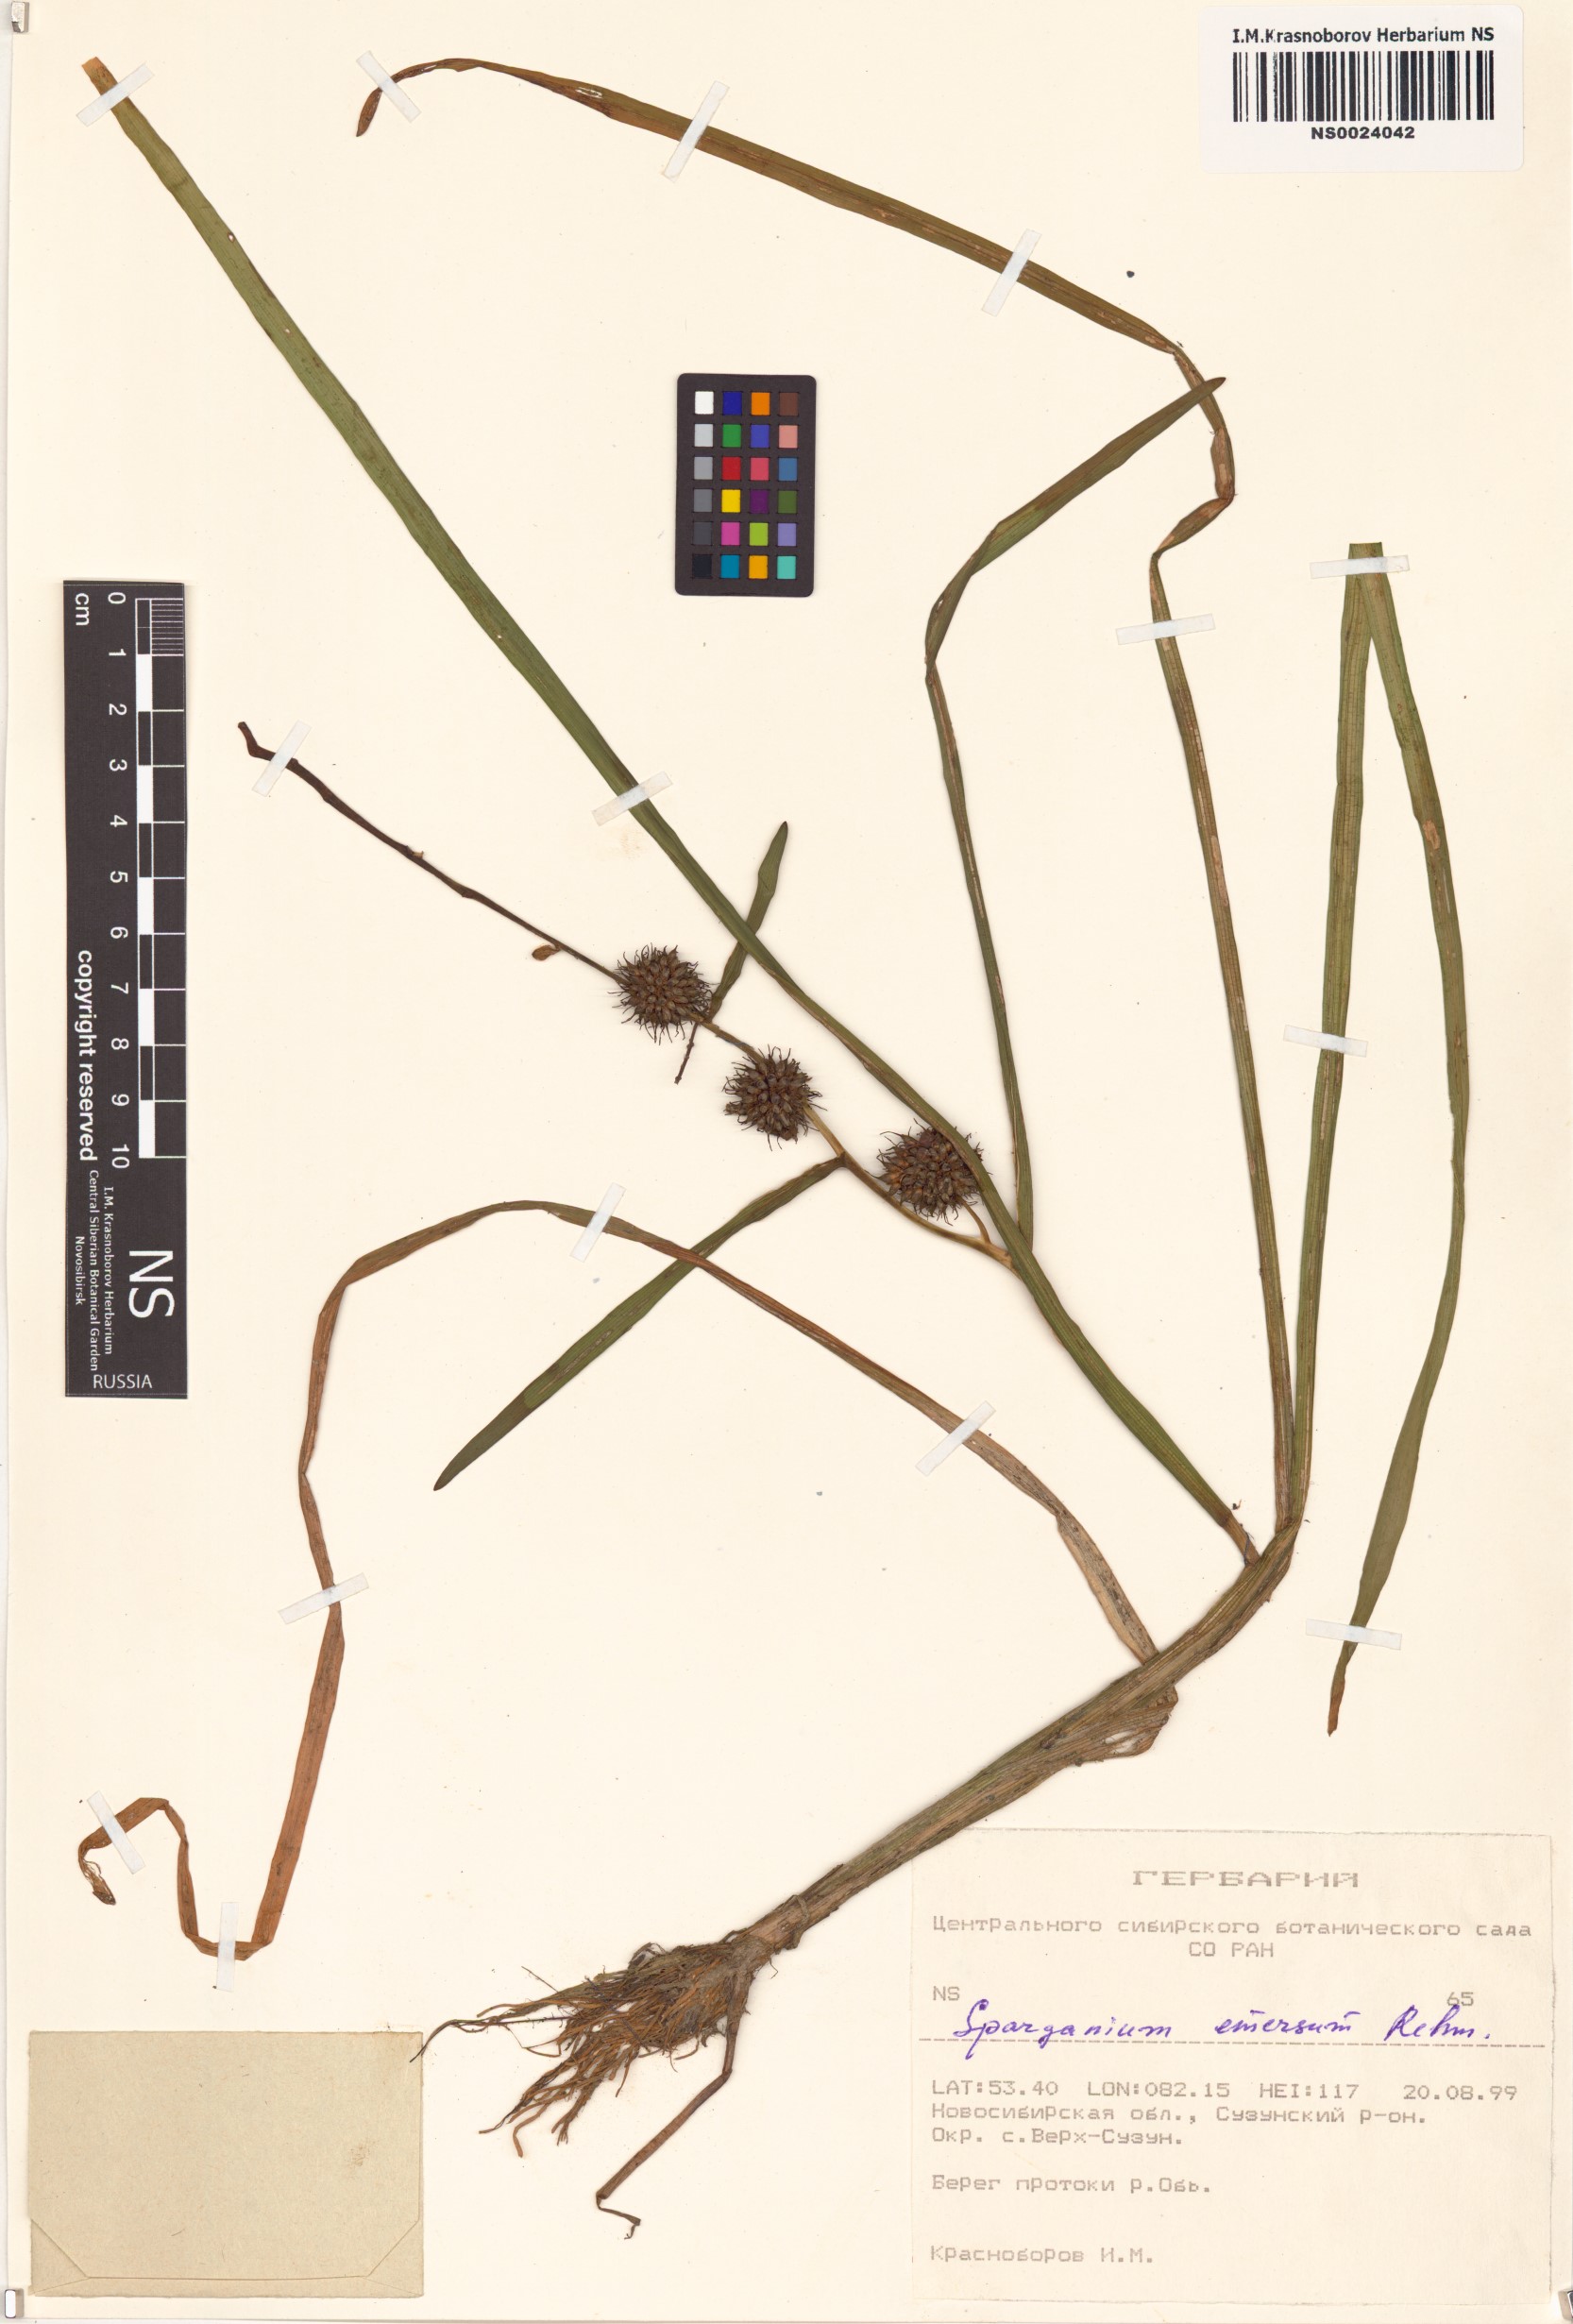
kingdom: Plantae
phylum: Tracheophyta
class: Liliopsida
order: Poales
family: Typhaceae
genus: Sparganium
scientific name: Sparganium emersum
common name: Unbranched bur-reed
